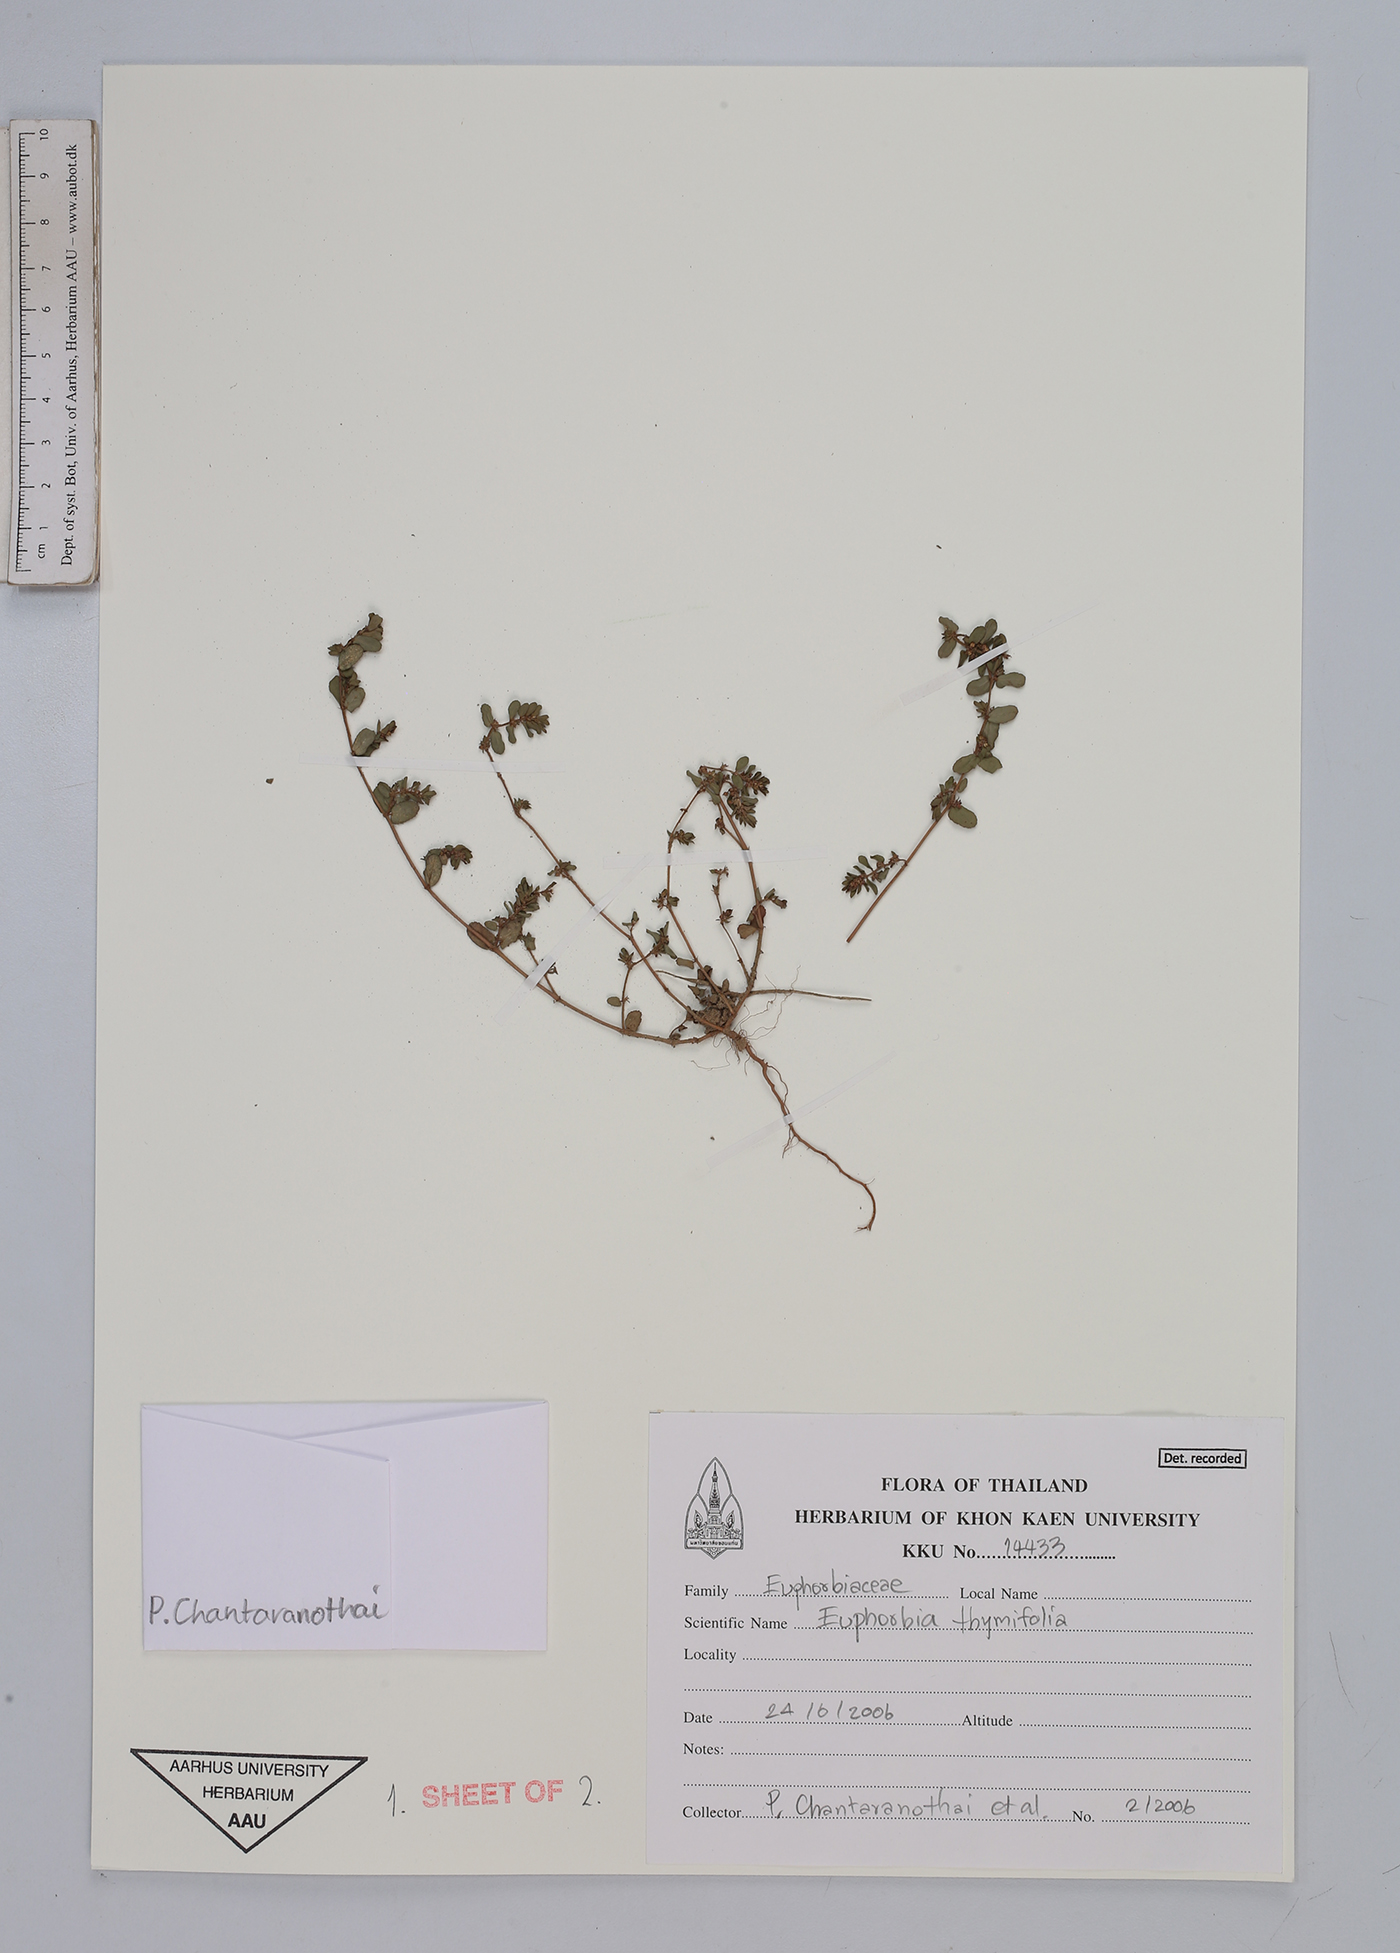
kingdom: Plantae
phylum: Tracheophyta
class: Magnoliopsida
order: Malpighiales
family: Euphorbiaceae
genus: Euphorbia
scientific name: Euphorbia thymifolia
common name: Gulf sandmat
